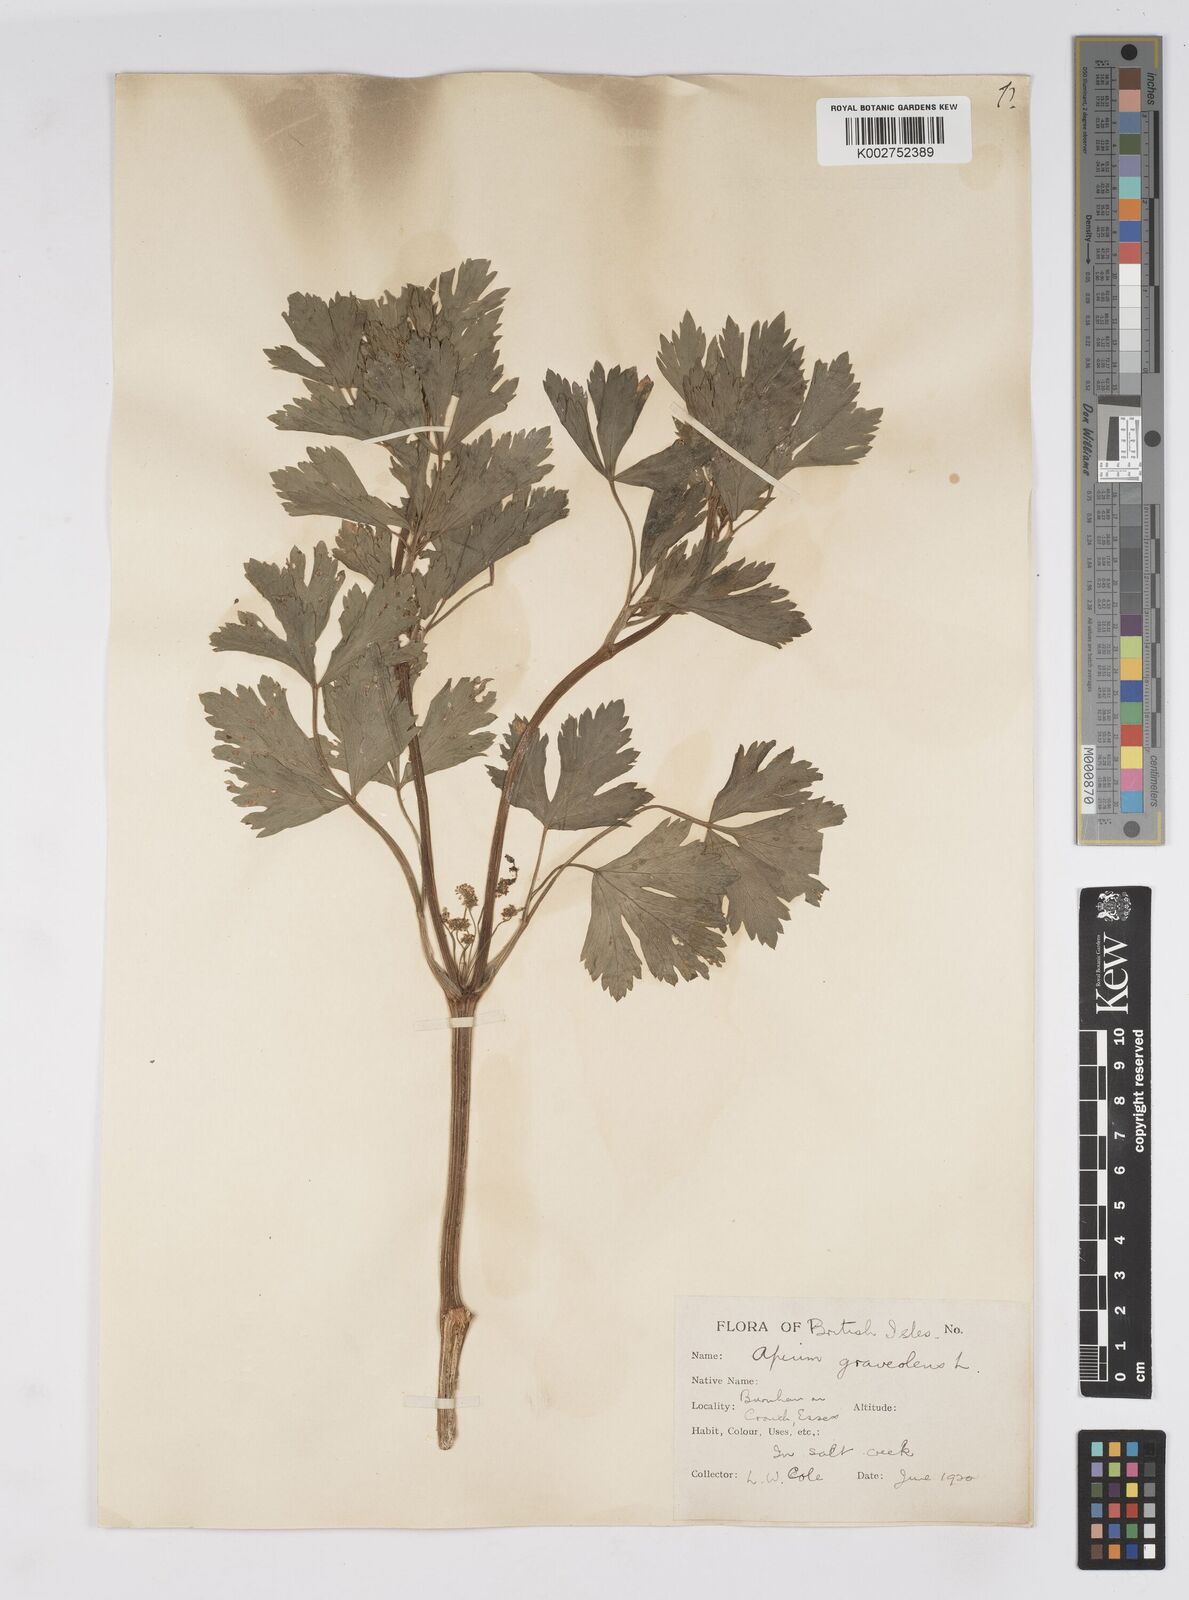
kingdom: Plantae
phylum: Tracheophyta
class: Magnoliopsida
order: Apiales
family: Apiaceae
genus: Apium
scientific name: Apium graveolens
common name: Wild celery
